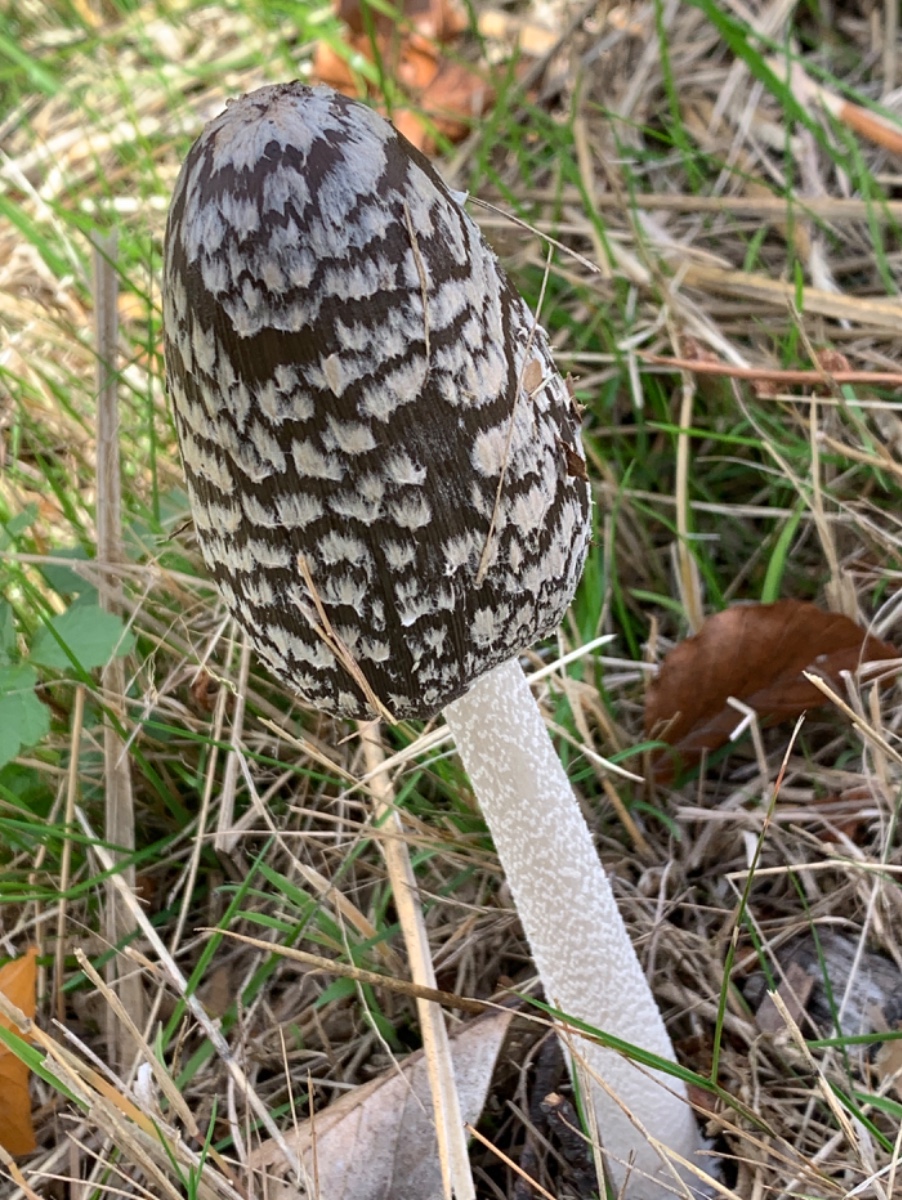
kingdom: Fungi
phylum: Basidiomycota
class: Agaricomycetes
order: Agaricales
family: Psathyrellaceae
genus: Coprinopsis
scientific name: Coprinopsis picacea
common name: skade-blækhat
